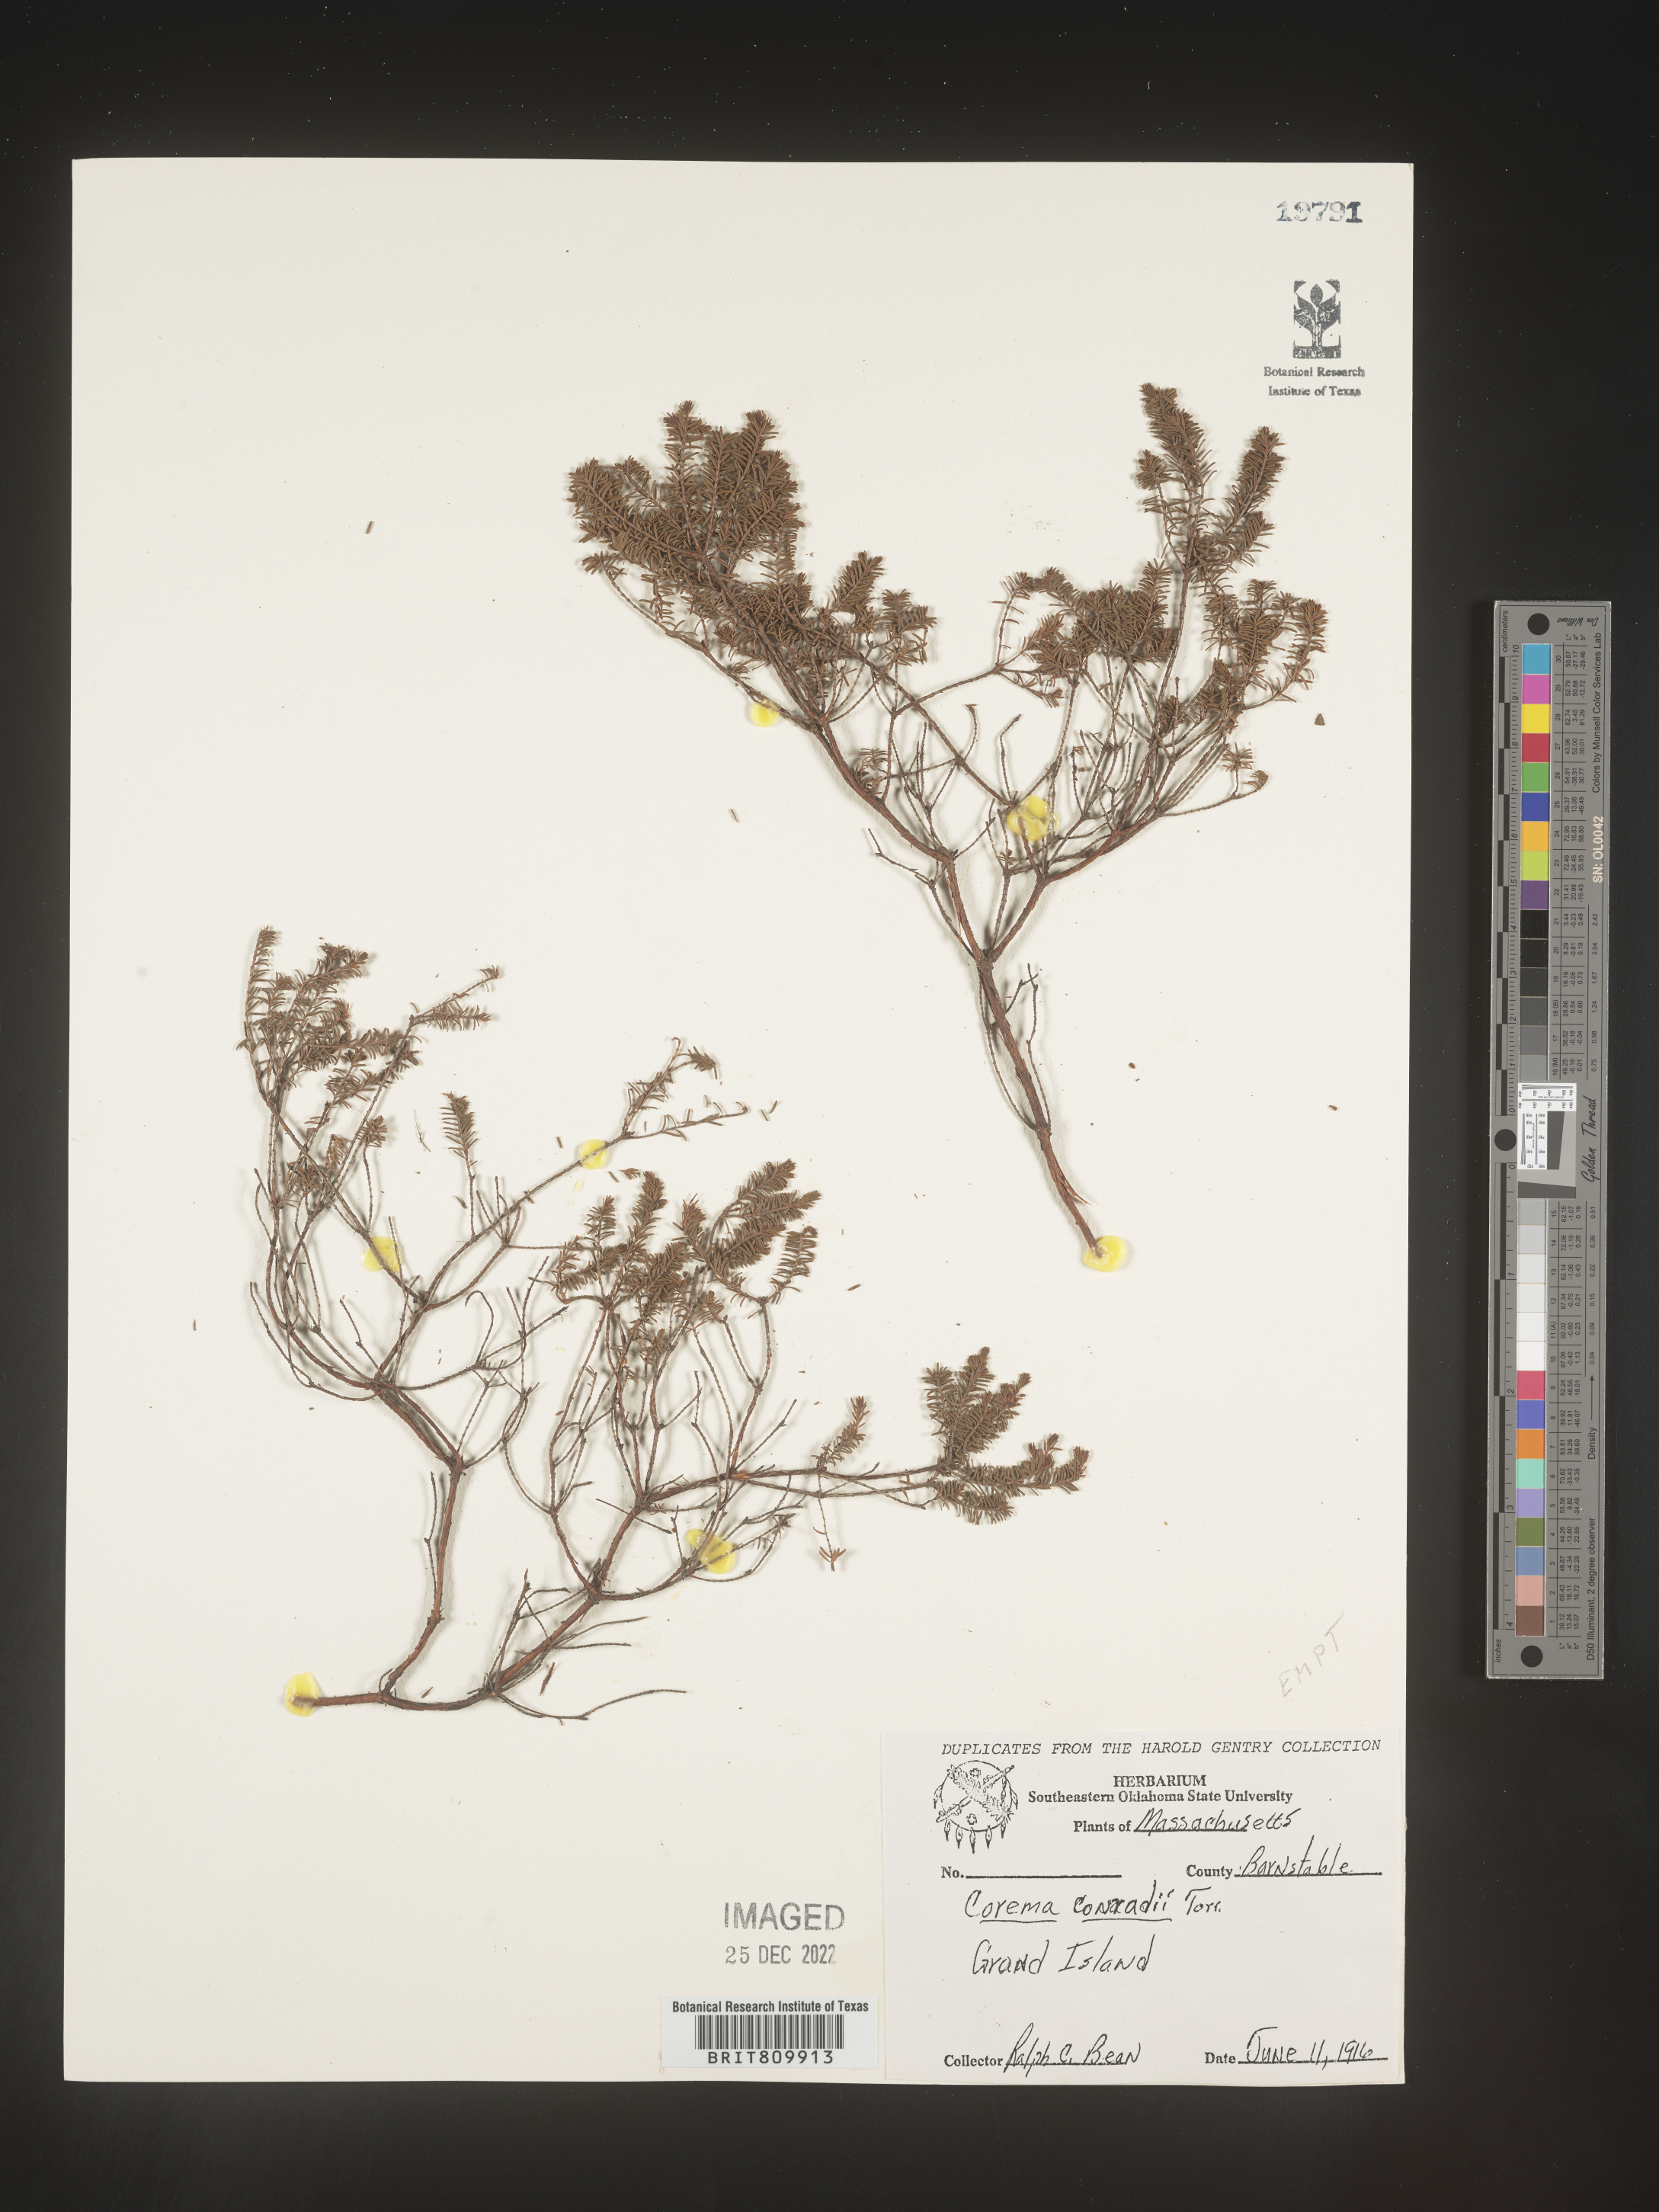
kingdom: Plantae
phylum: Tracheophyta
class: Magnoliopsida
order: Ericales
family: Ericaceae
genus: Corema
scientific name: Corema
